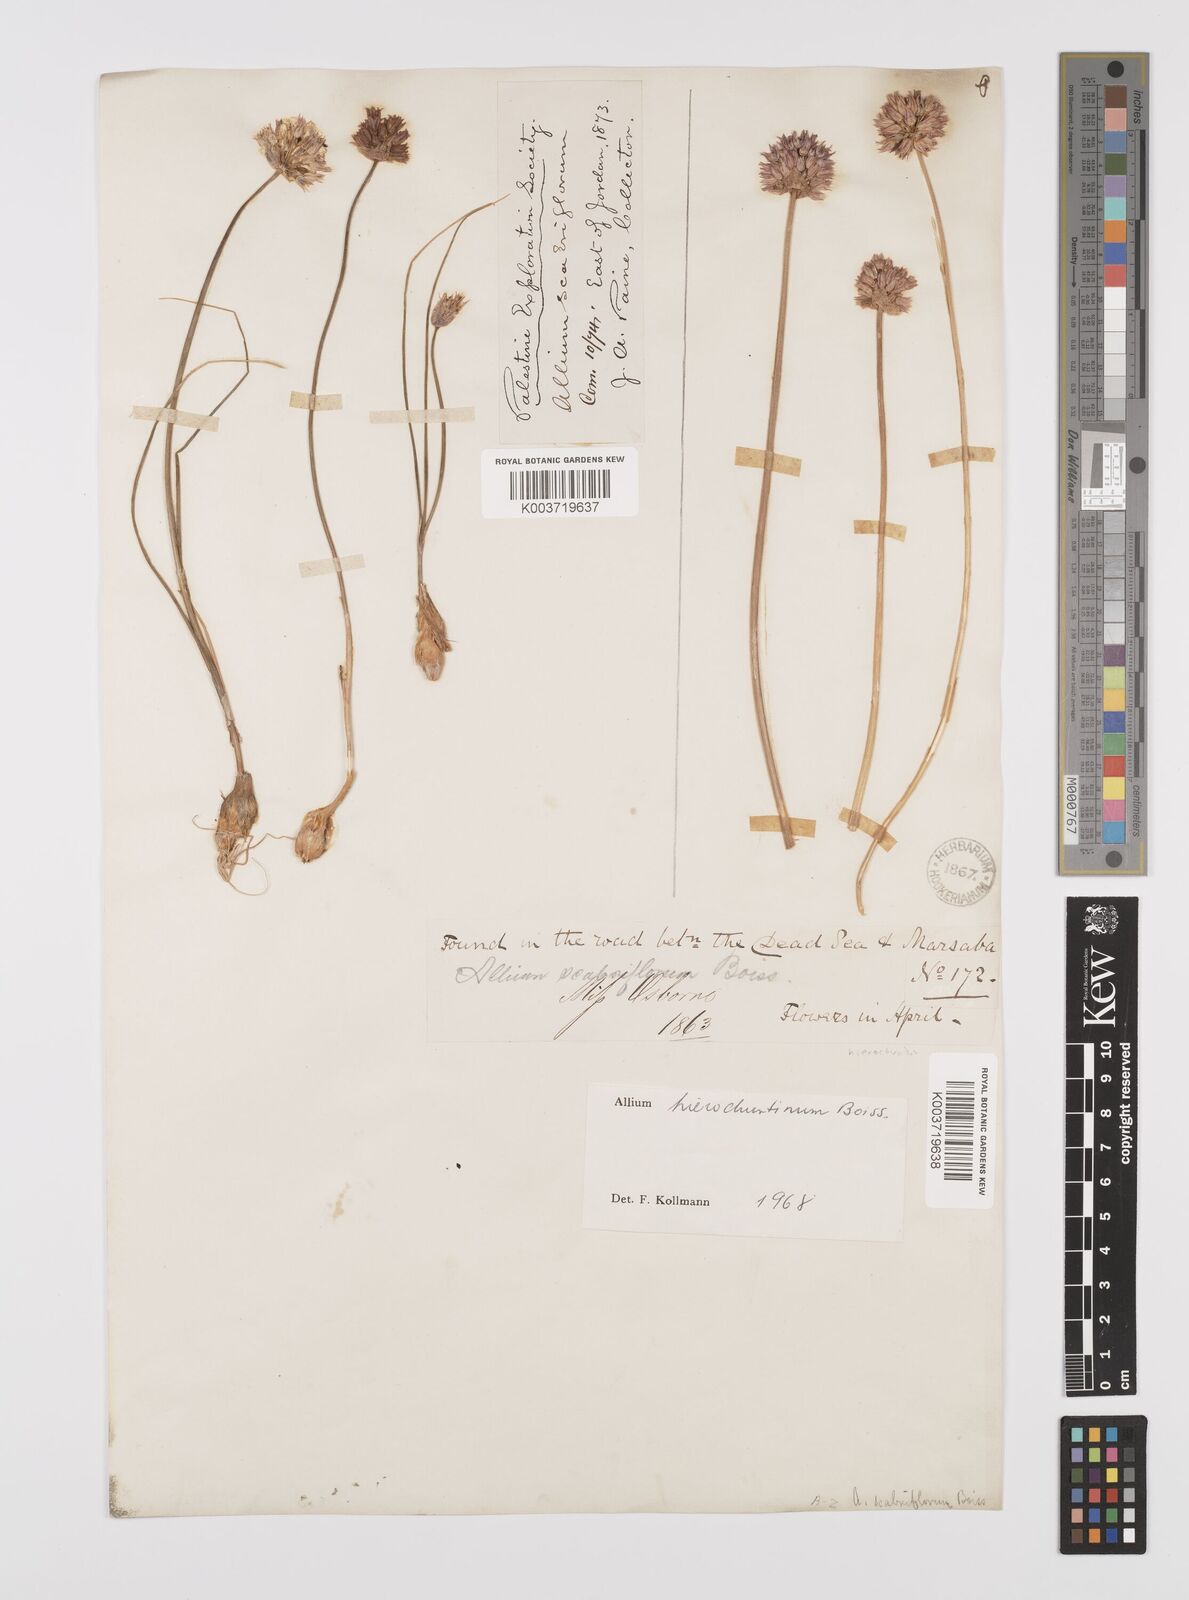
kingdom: Plantae
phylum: Tracheophyta
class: Liliopsida
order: Asparagales
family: Amaryllidaceae
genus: Allium
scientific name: Allium ascalonicum
